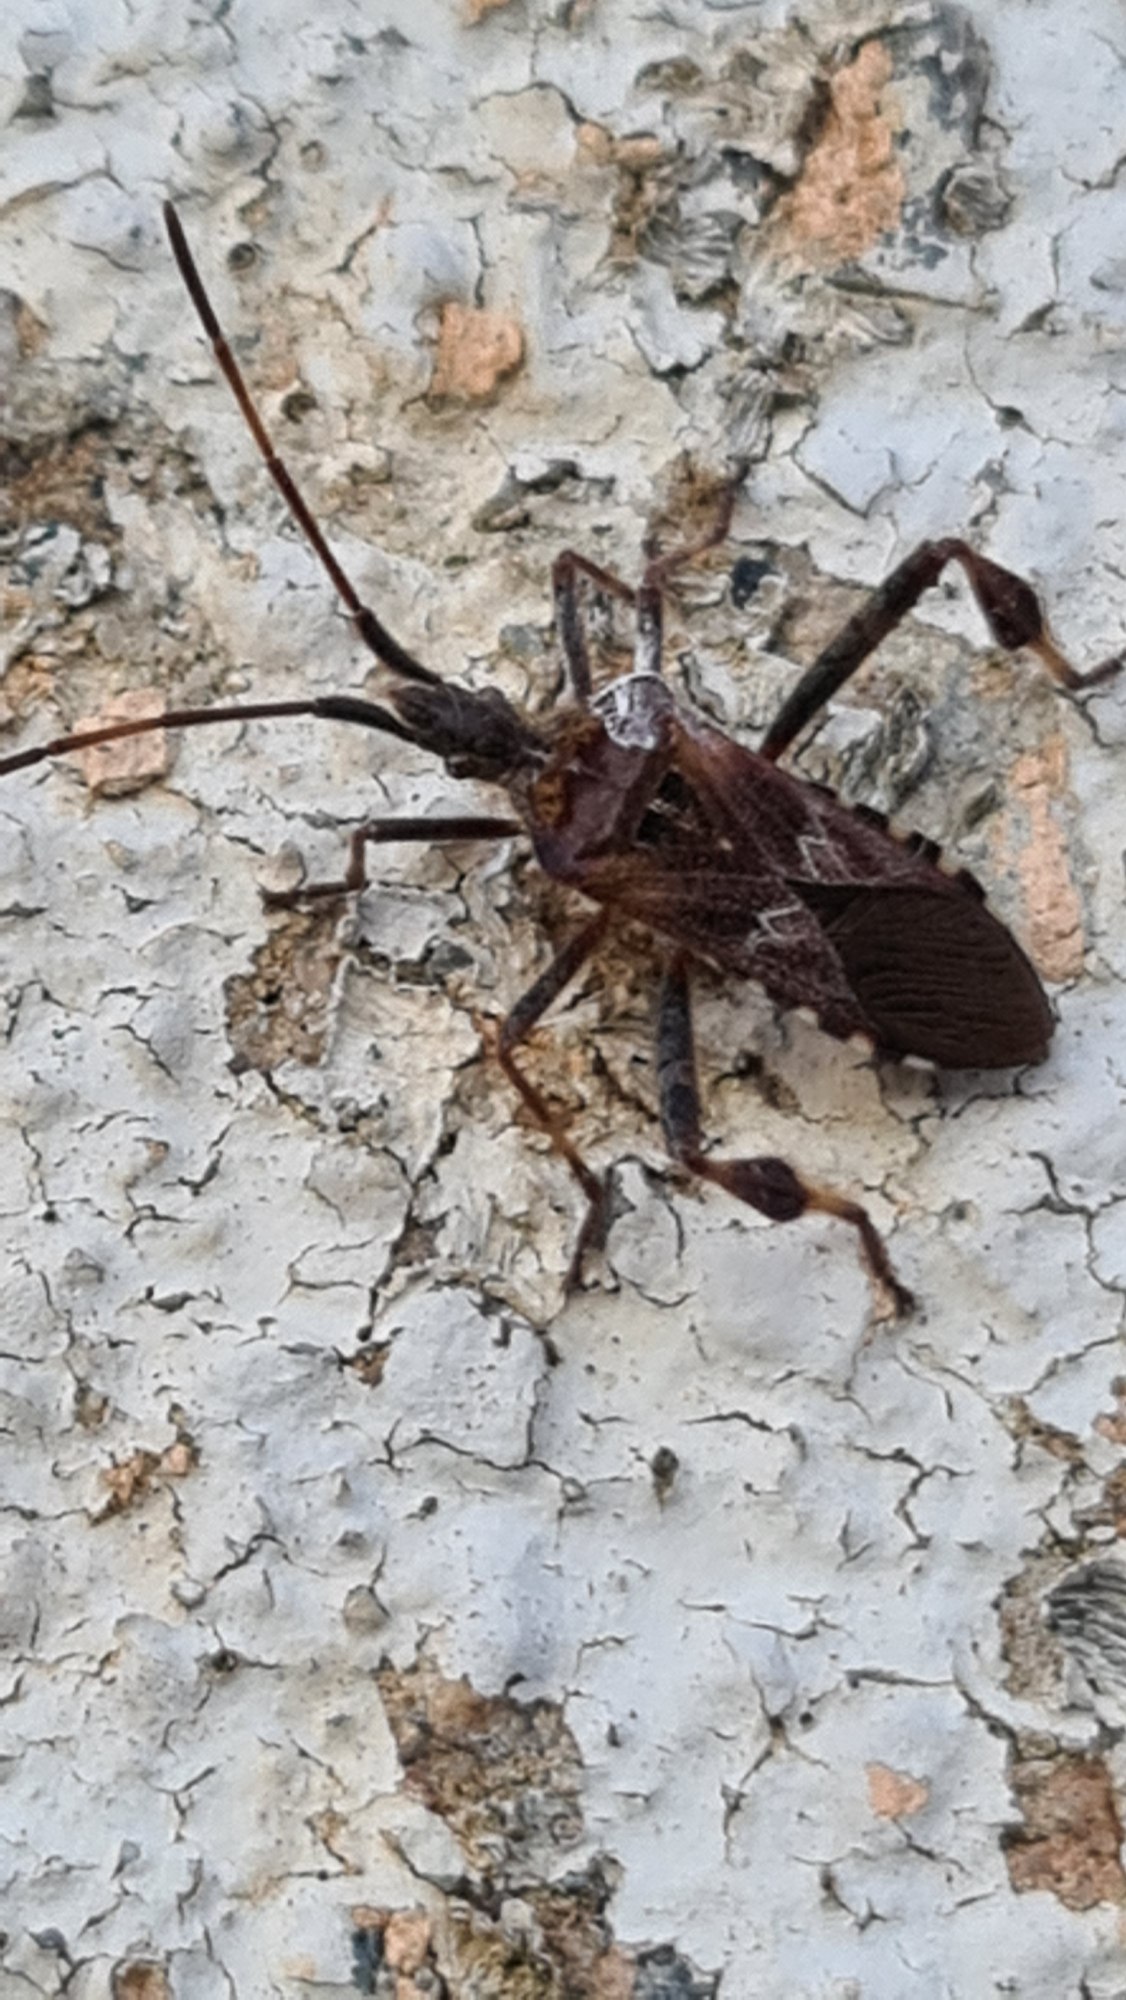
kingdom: Animalia
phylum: Arthropoda
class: Insecta
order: Hemiptera
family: Coreidae
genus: Leptoglossus
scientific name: Leptoglossus occidentalis
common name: Amerikansk fyrretæge
